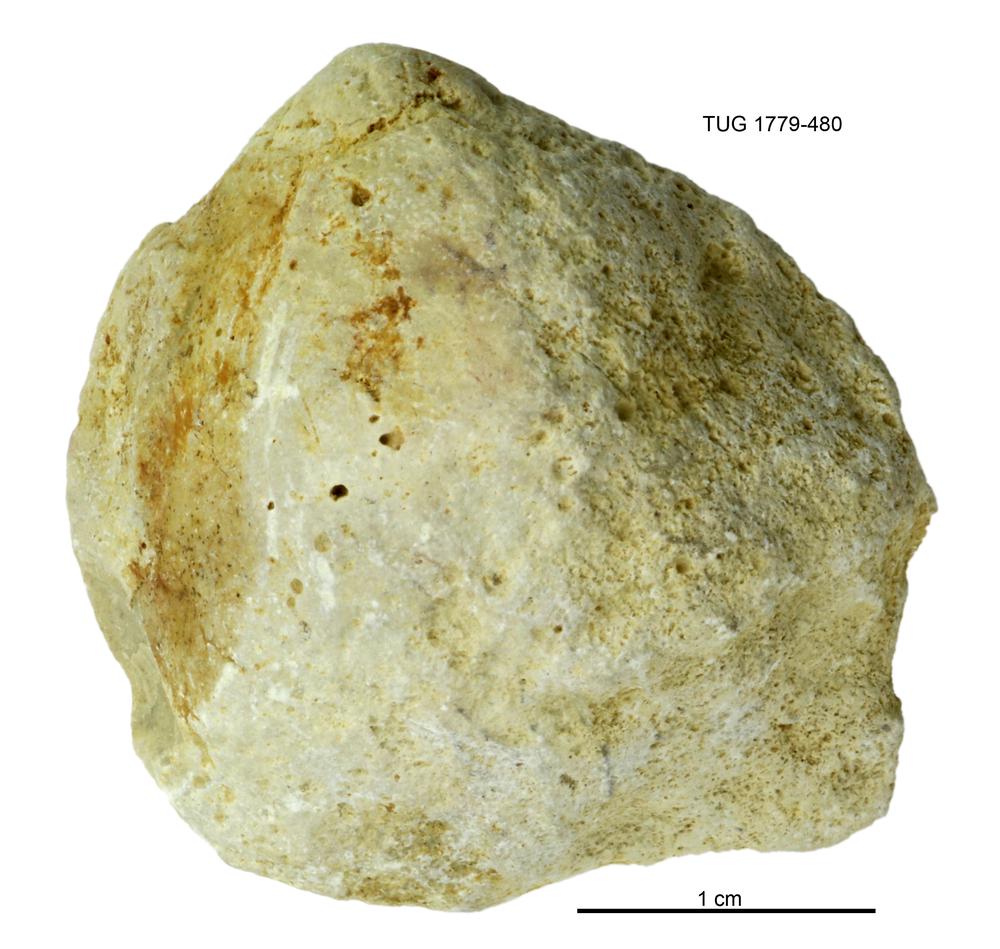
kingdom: Animalia
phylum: Mollusca
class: Bivalvia
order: Modiomorphida
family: Modiomorphidae
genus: Modiolopsis
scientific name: Modiolopsis
